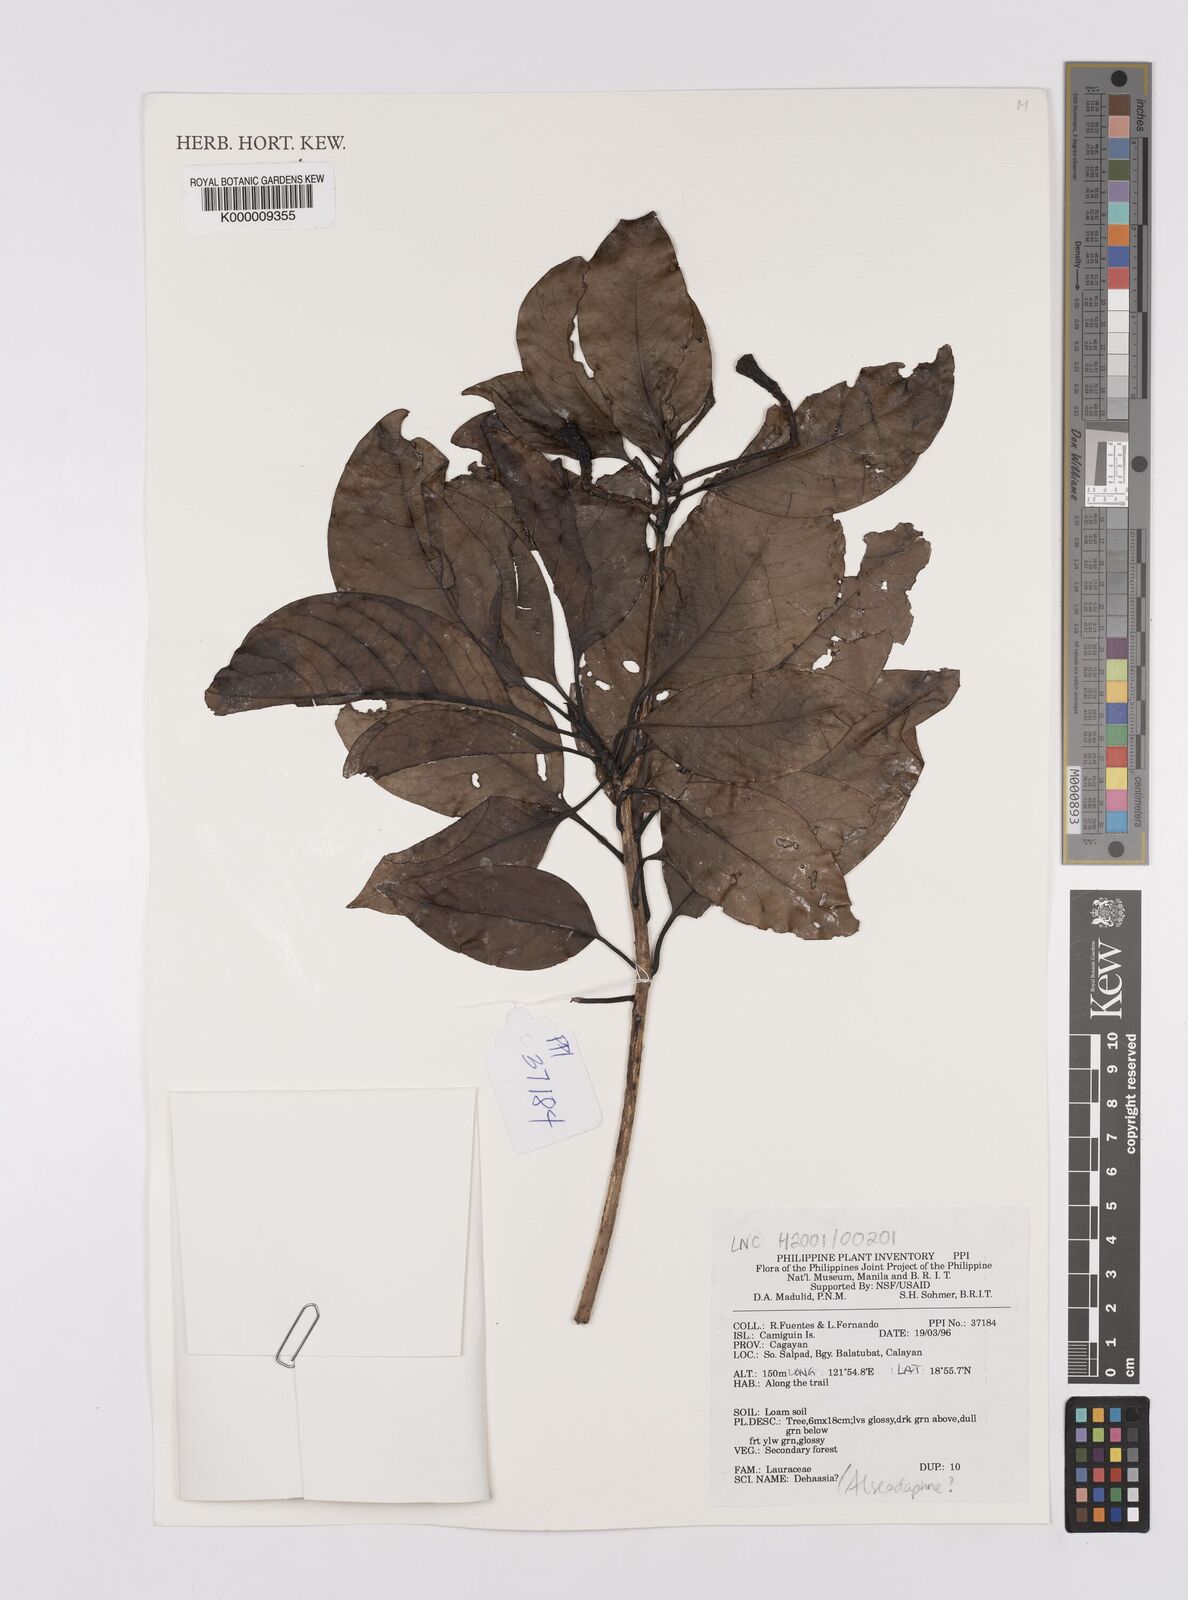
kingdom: Plantae
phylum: Tracheophyta
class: Magnoliopsida
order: Laurales
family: Lauraceae
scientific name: Lauraceae
